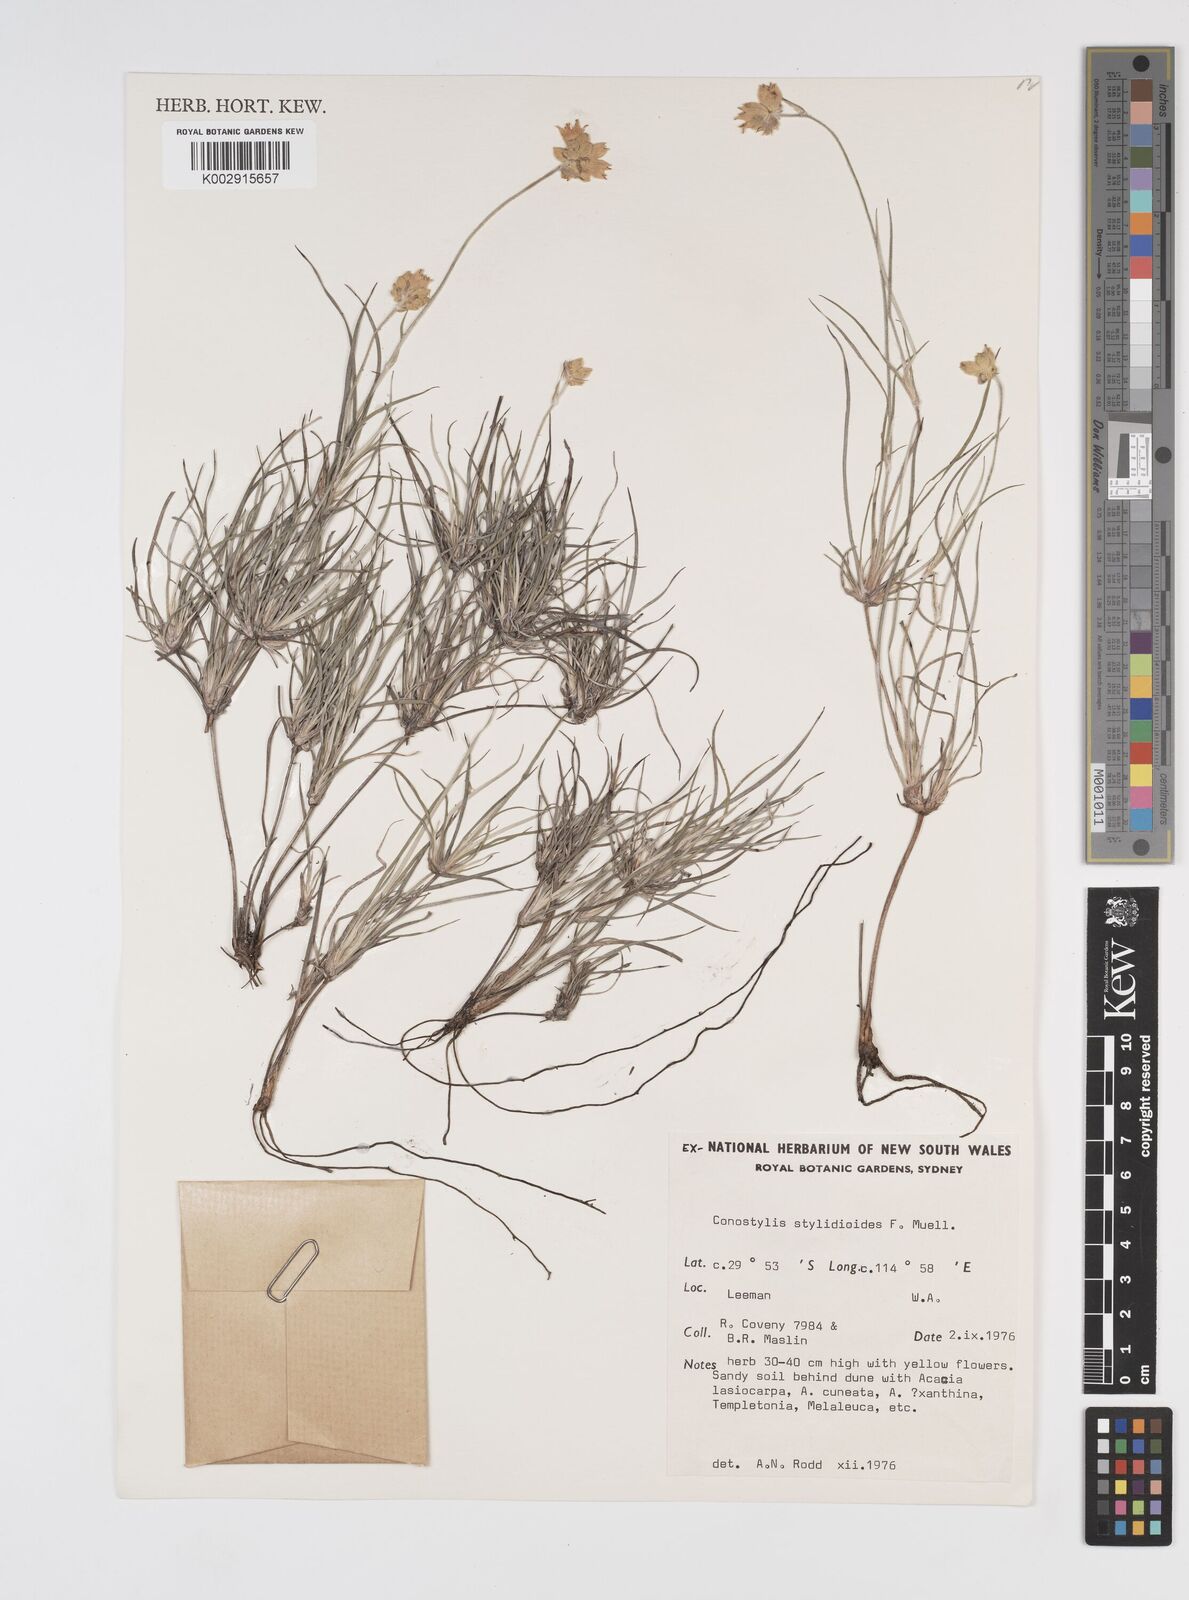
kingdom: Plantae
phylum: Tracheophyta
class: Liliopsida
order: Commelinales
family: Haemodoraceae
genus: Conostylis
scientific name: Conostylis stylidioides
